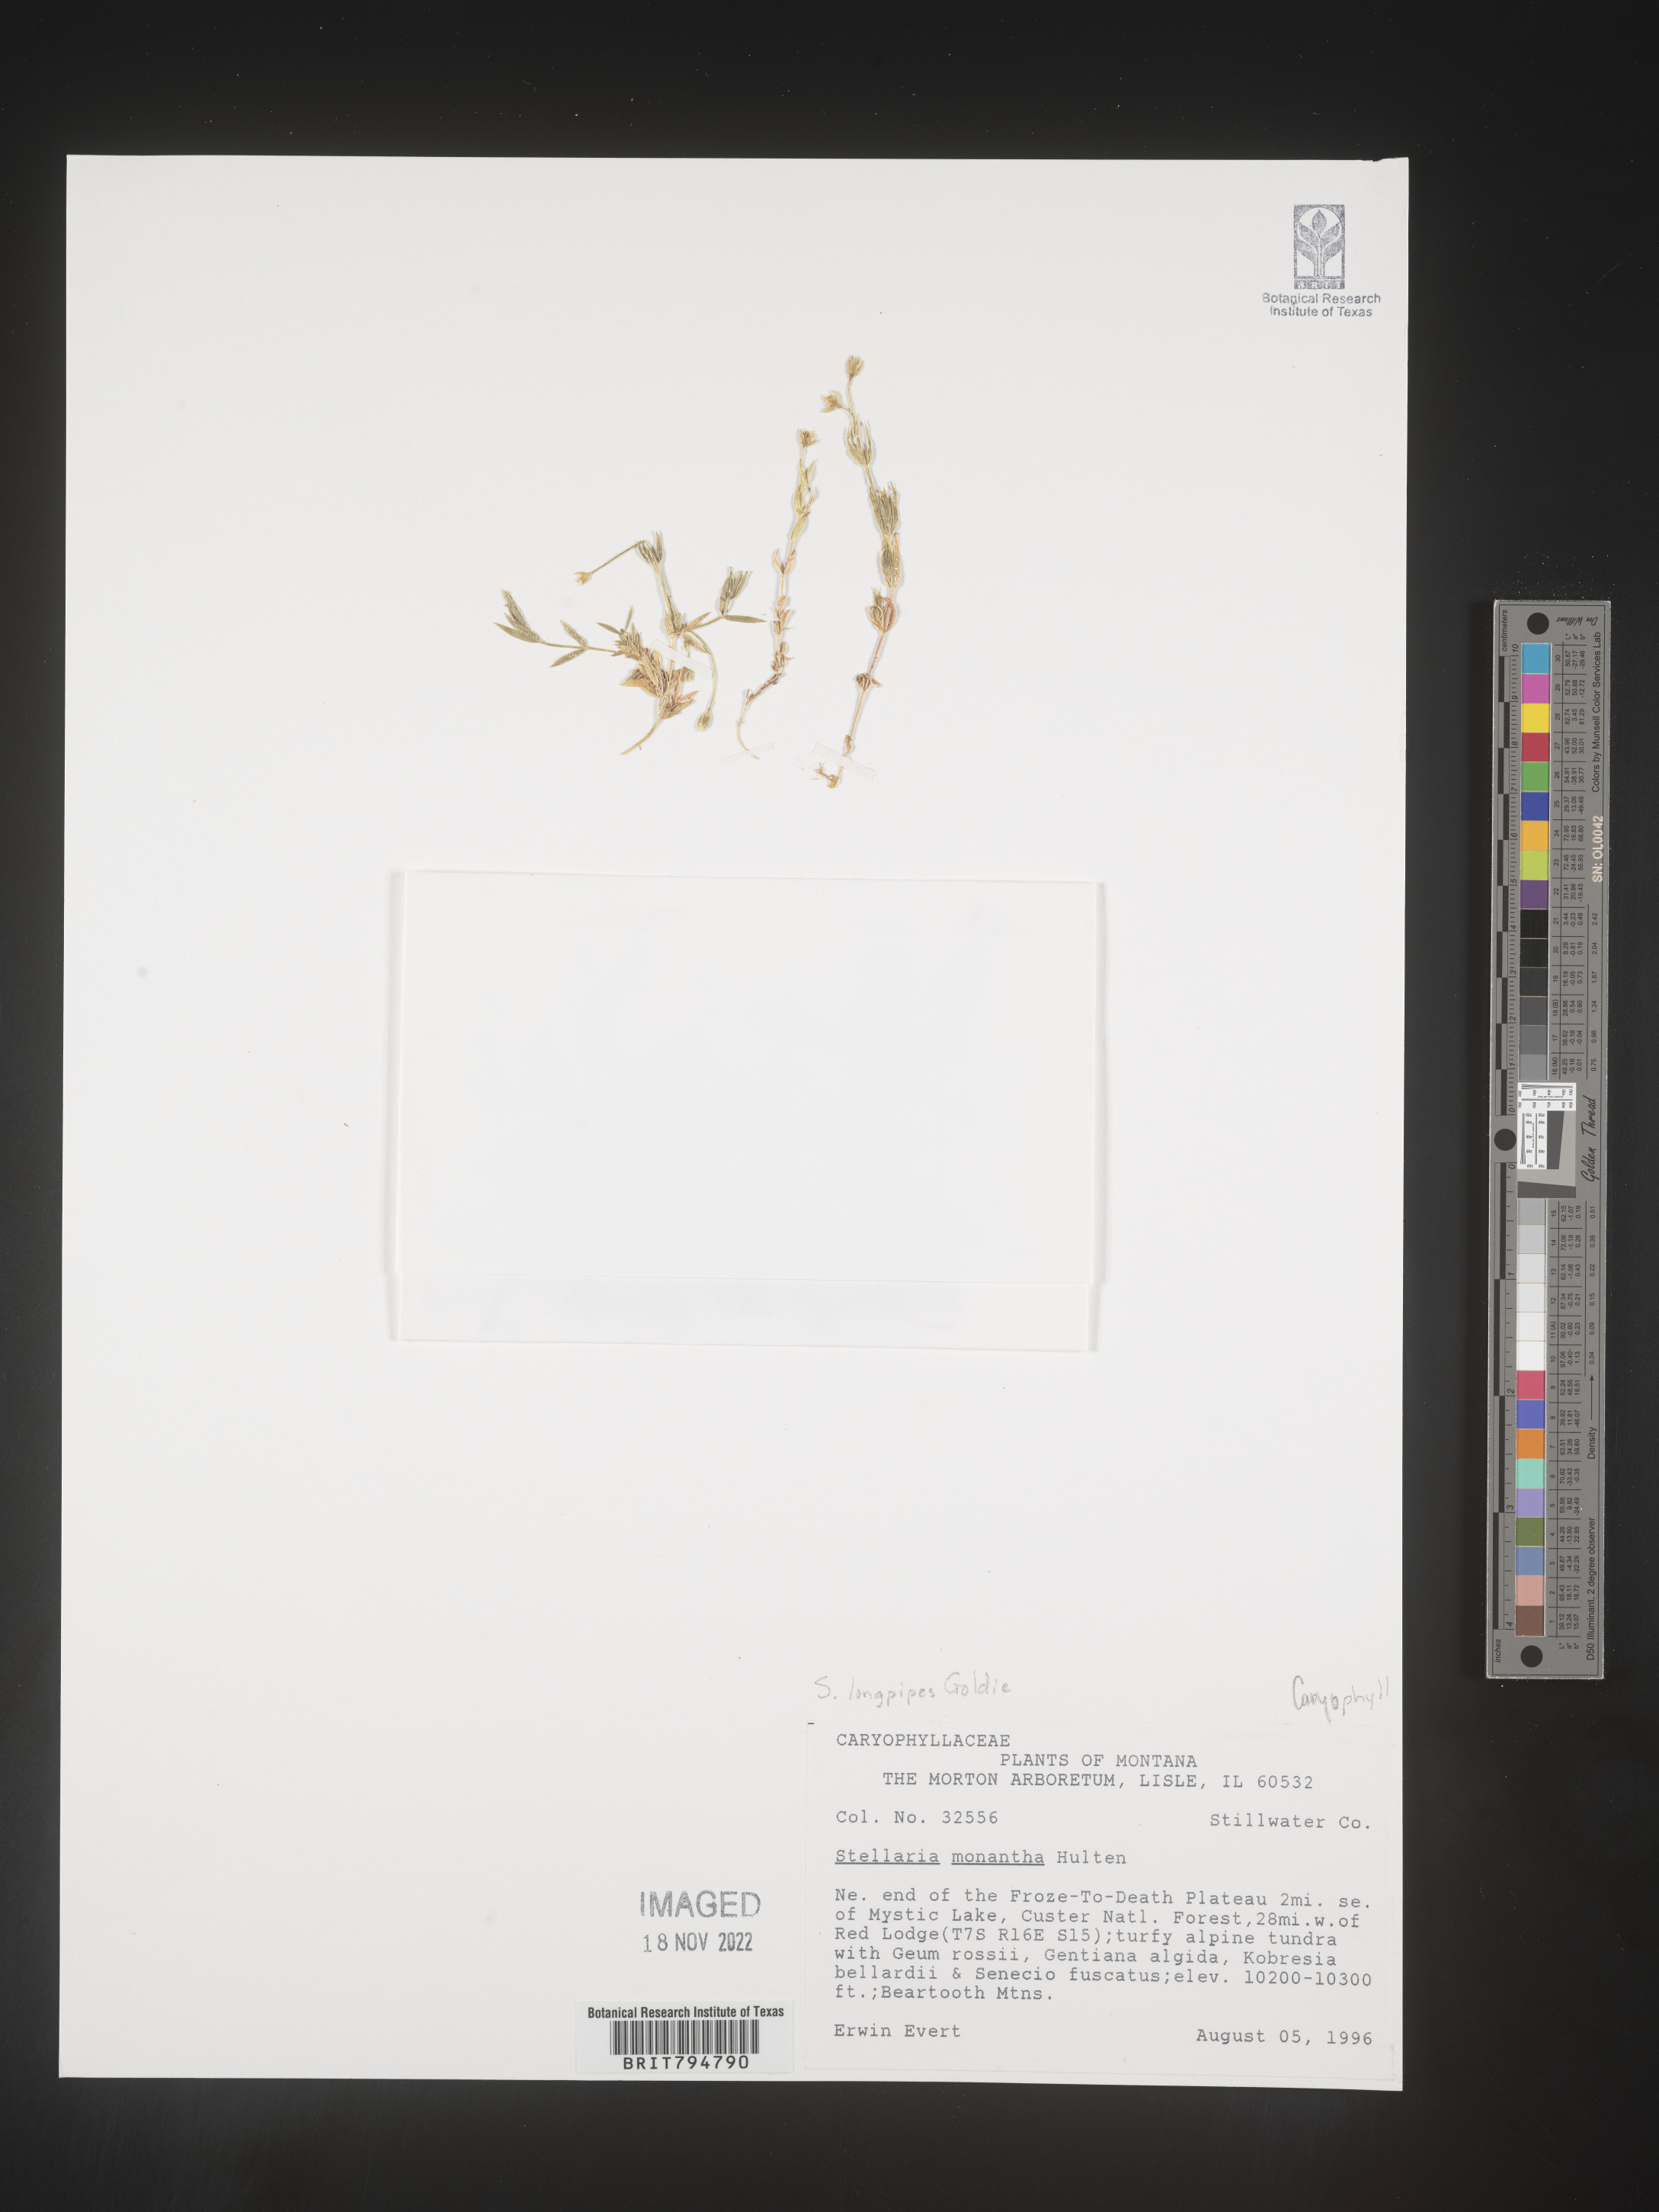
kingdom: Plantae
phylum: Tracheophyta
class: Magnoliopsida
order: Caryophyllales
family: Caryophyllaceae
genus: Stellaria
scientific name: Stellaria longipes
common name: Goldie's starwort
